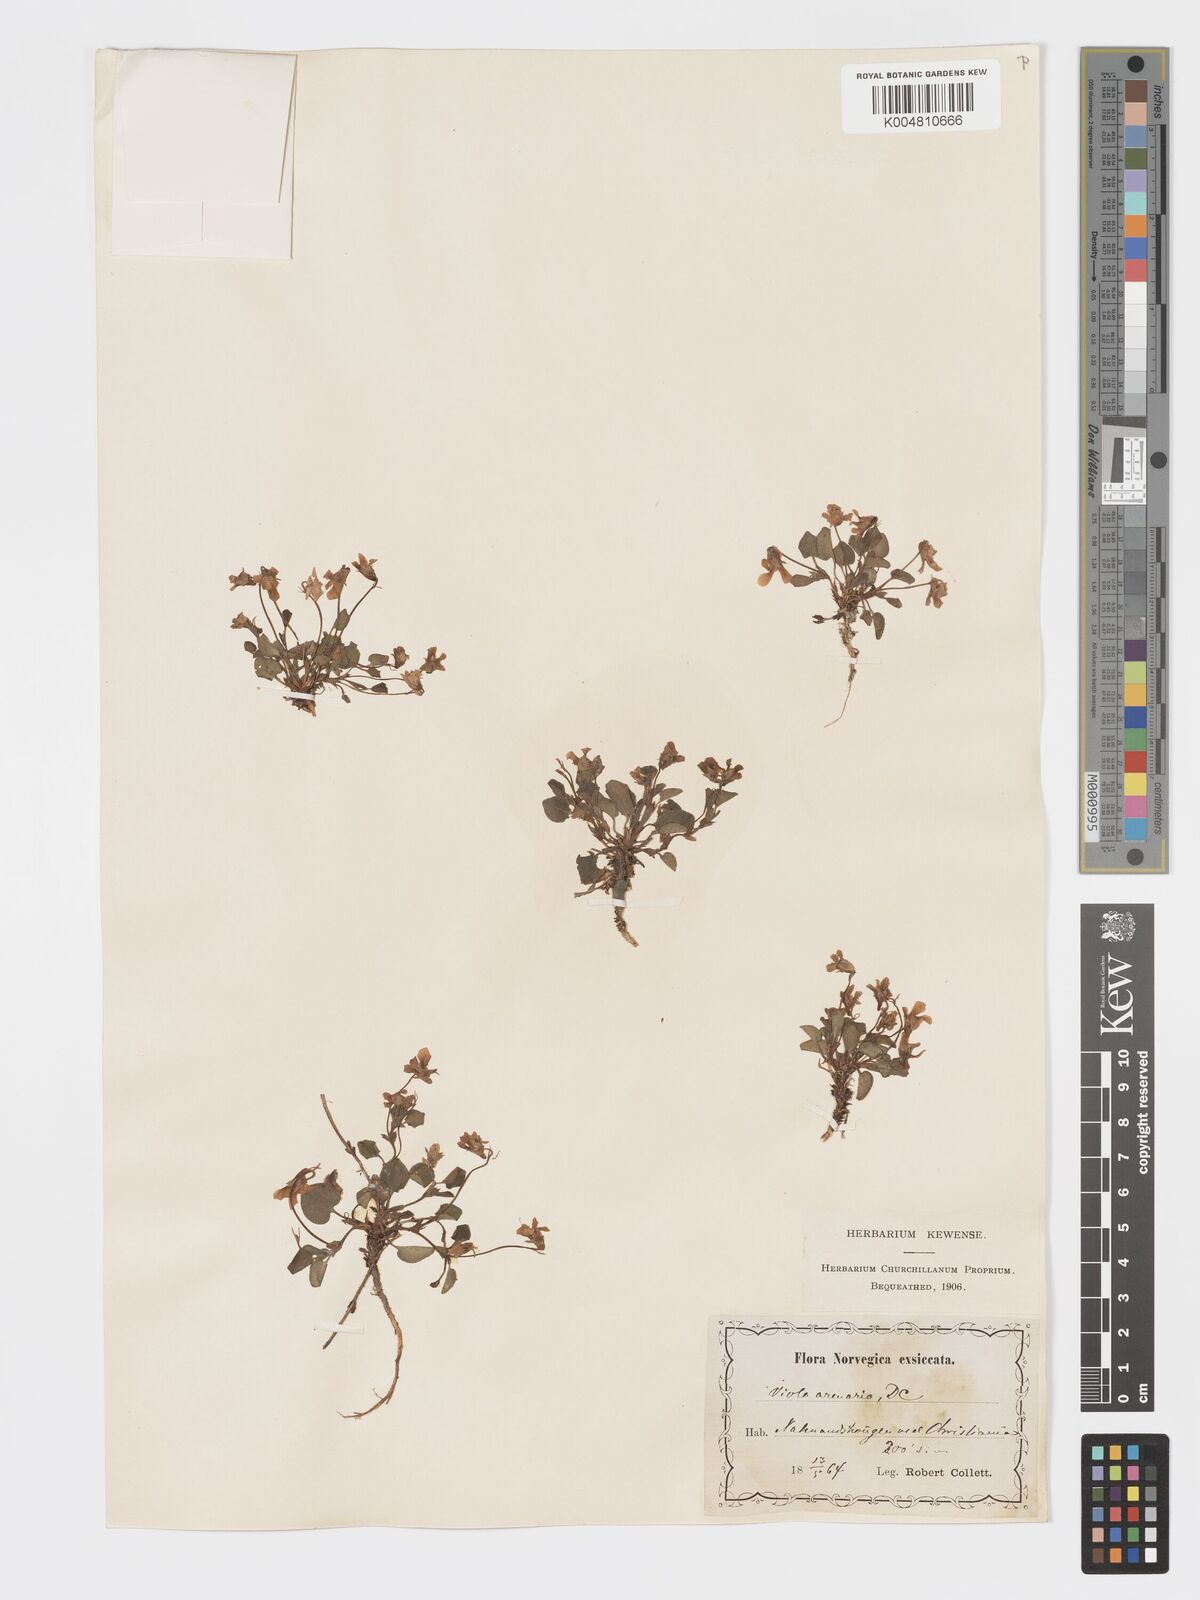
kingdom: Plantae
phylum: Tracheophyta
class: Magnoliopsida
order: Malpighiales
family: Violaceae
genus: Viola
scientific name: Viola rupestris
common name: Teesdale violet
